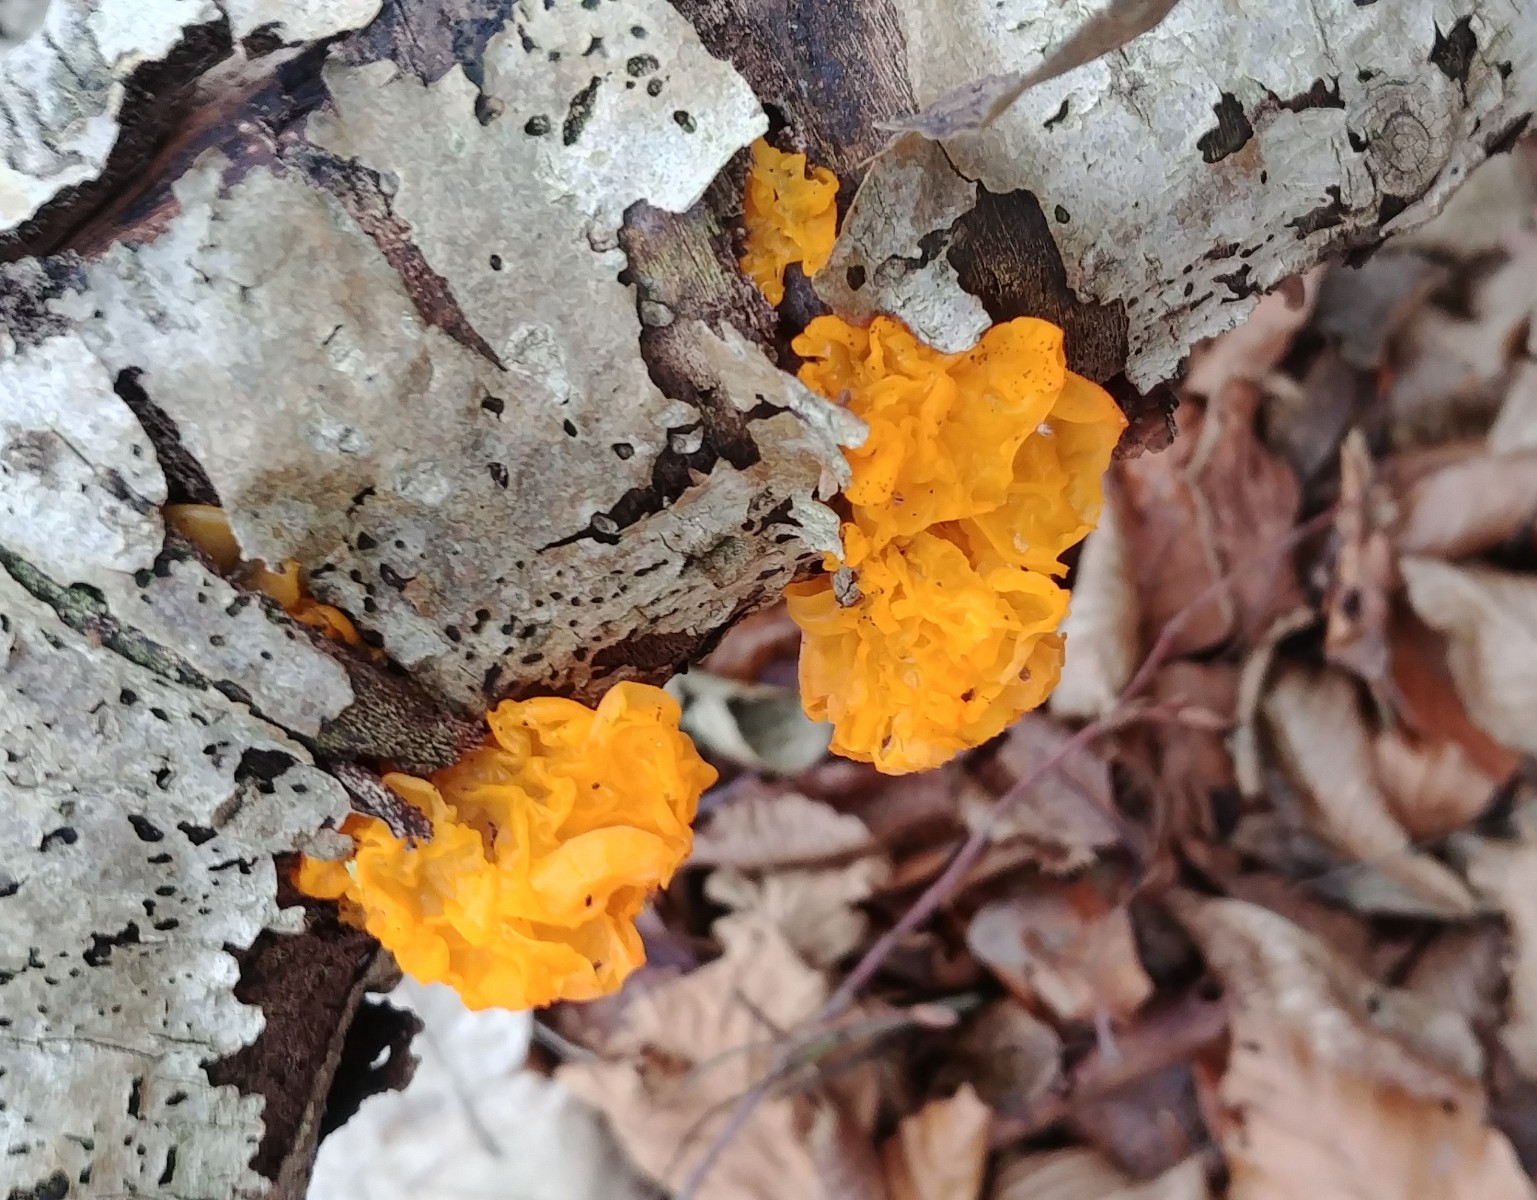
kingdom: Fungi
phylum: Basidiomycota
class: Tremellomycetes
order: Tremellales
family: Tremellaceae
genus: Tremella
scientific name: Tremella mesenterica
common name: gul bævresvamp
